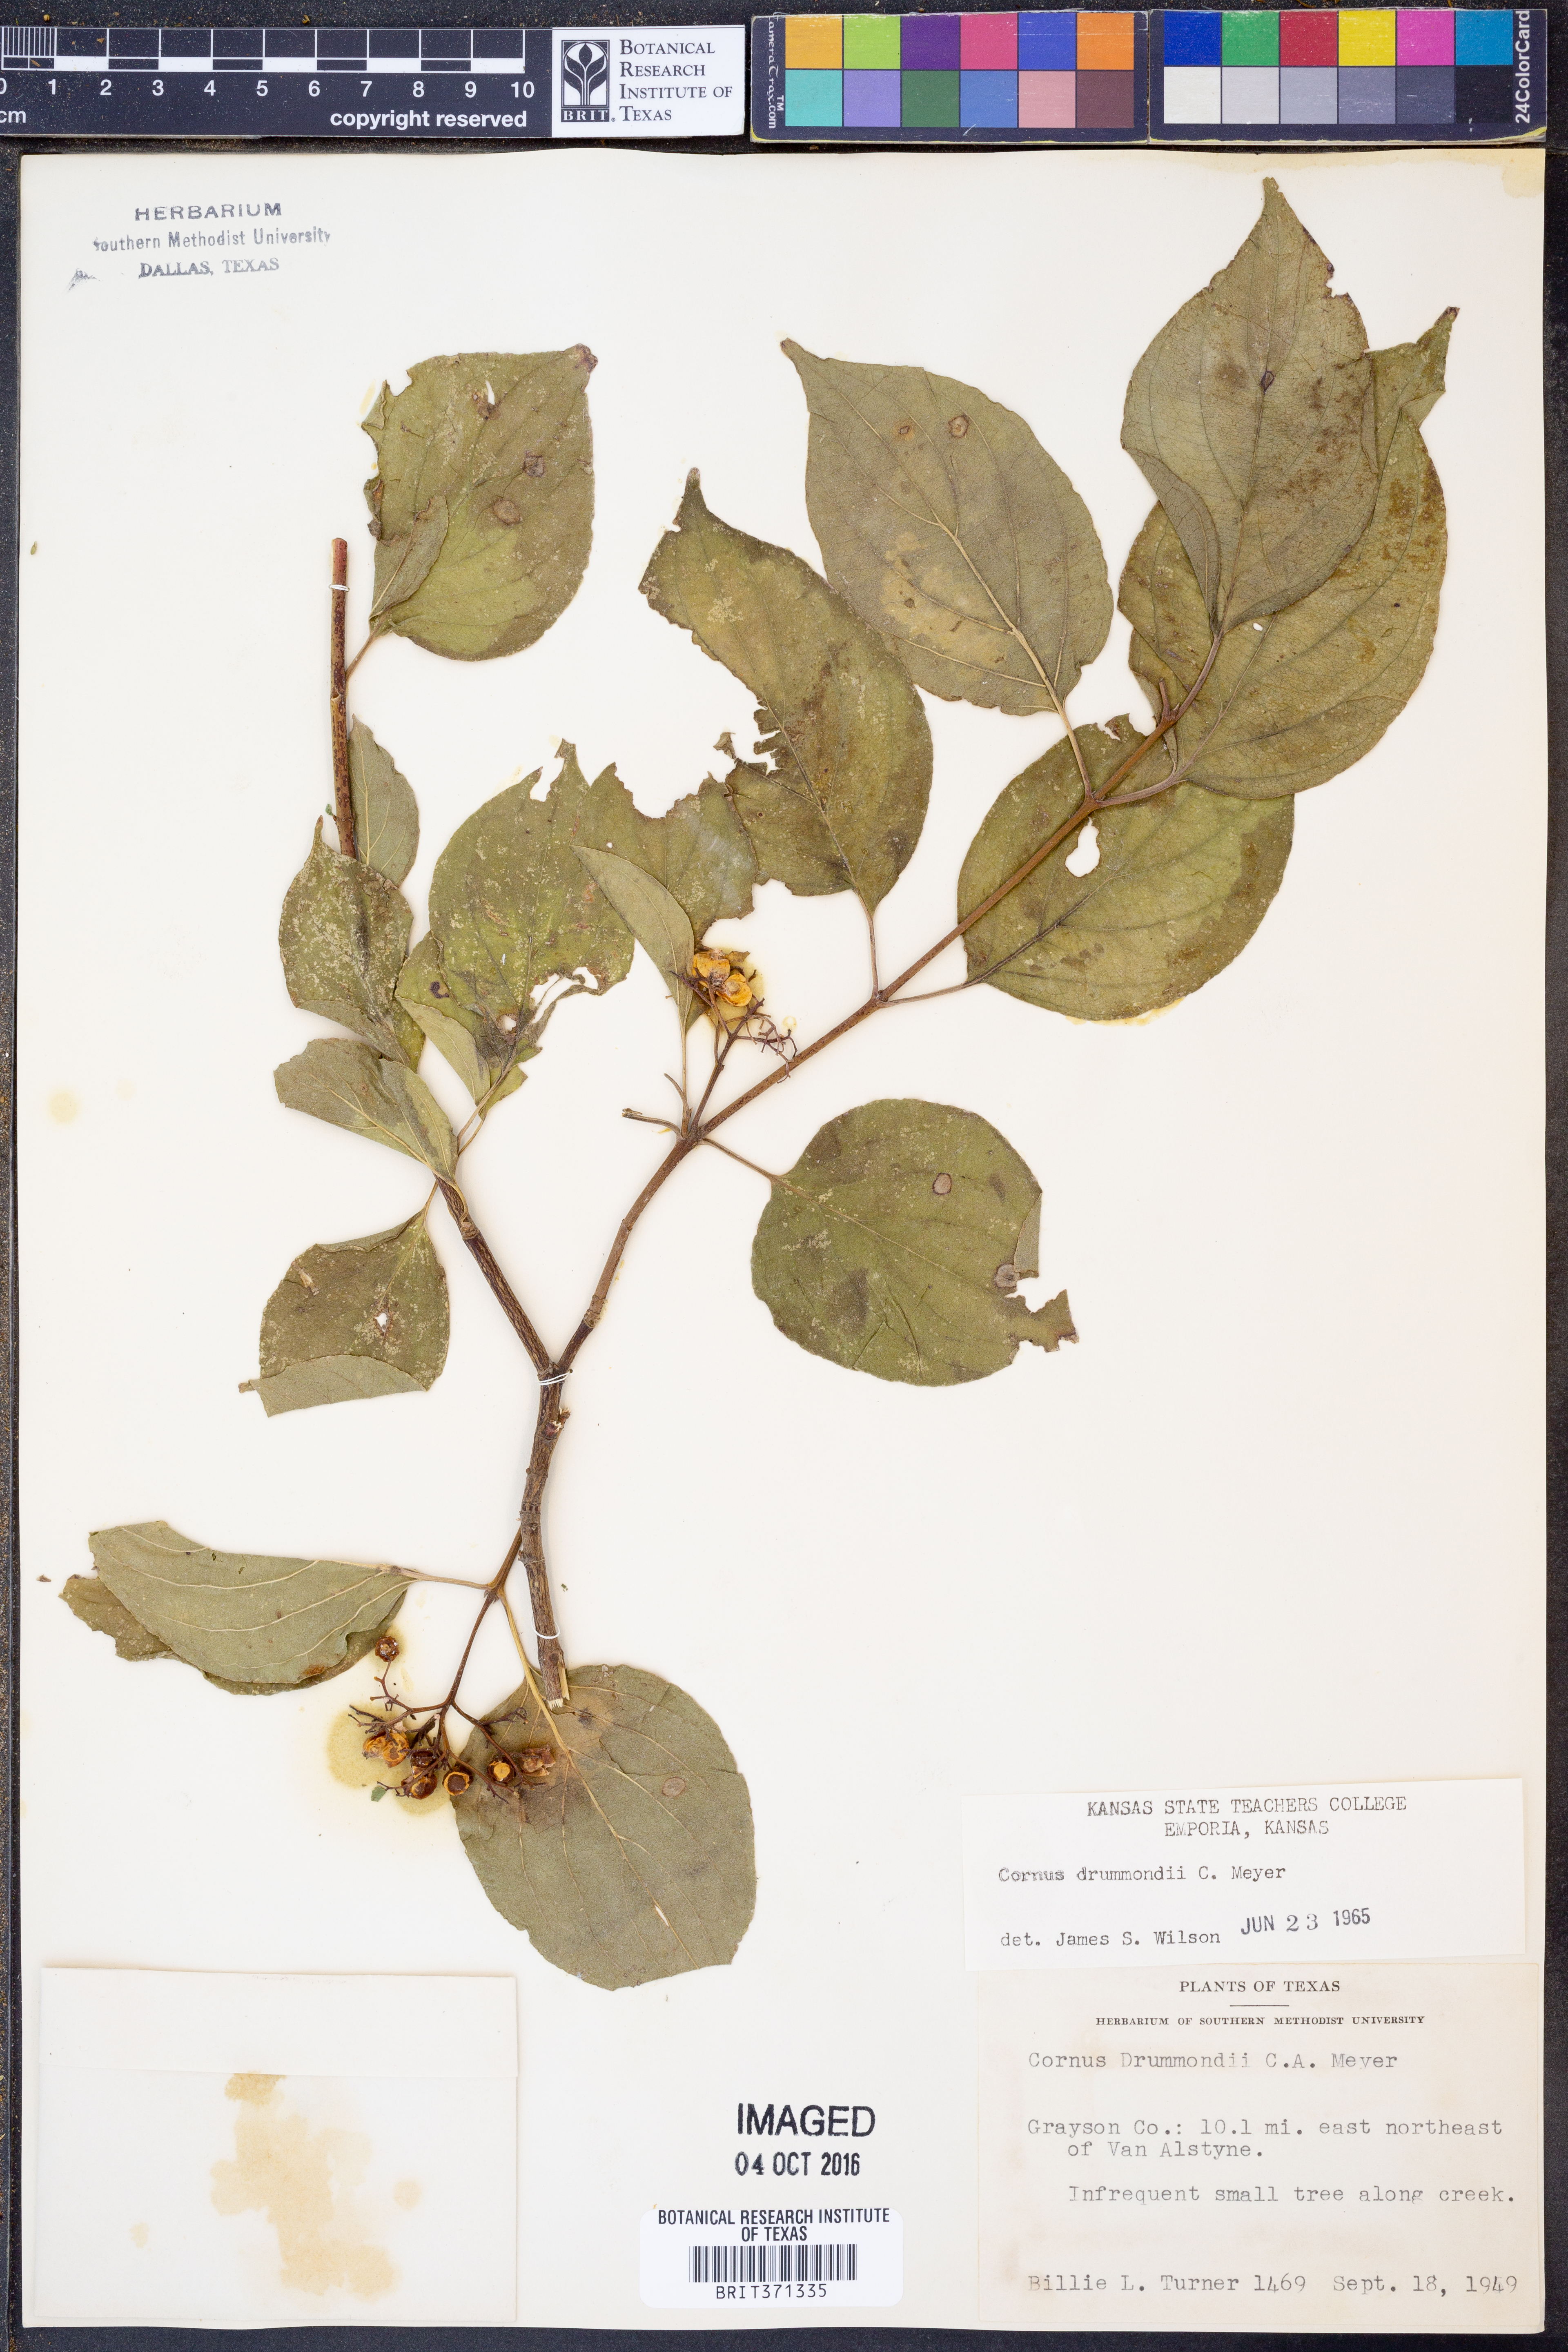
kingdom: Plantae
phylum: Tracheophyta
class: Magnoliopsida
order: Cornales
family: Cornaceae
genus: Cornus
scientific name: Cornus drummondii
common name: Rough-leaf dogwood
